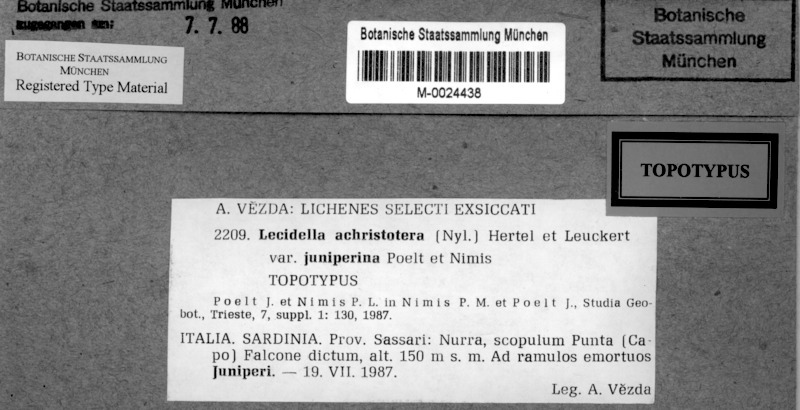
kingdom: Fungi
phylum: Ascomycota
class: Lecanoromycetes
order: Lecanorales
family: Lecanoraceae
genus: Lecidella
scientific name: Lecidella elaeochroma
